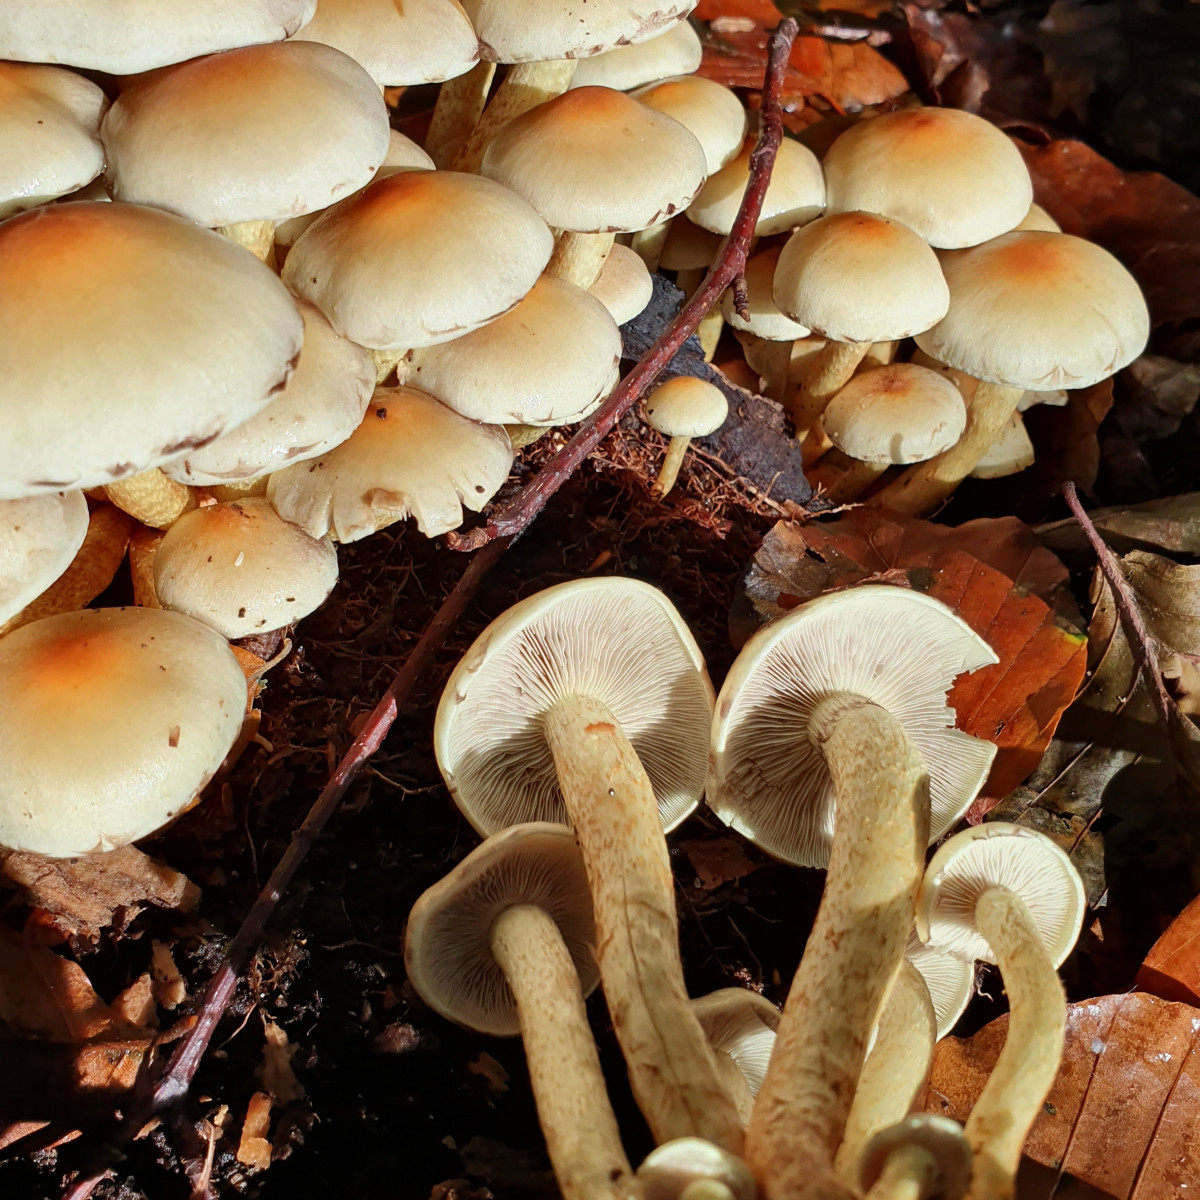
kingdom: Fungi
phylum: Basidiomycota
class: Agaricomycetes
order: Agaricales
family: Strophariaceae
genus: Hypholoma
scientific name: Hypholoma fasciculare
